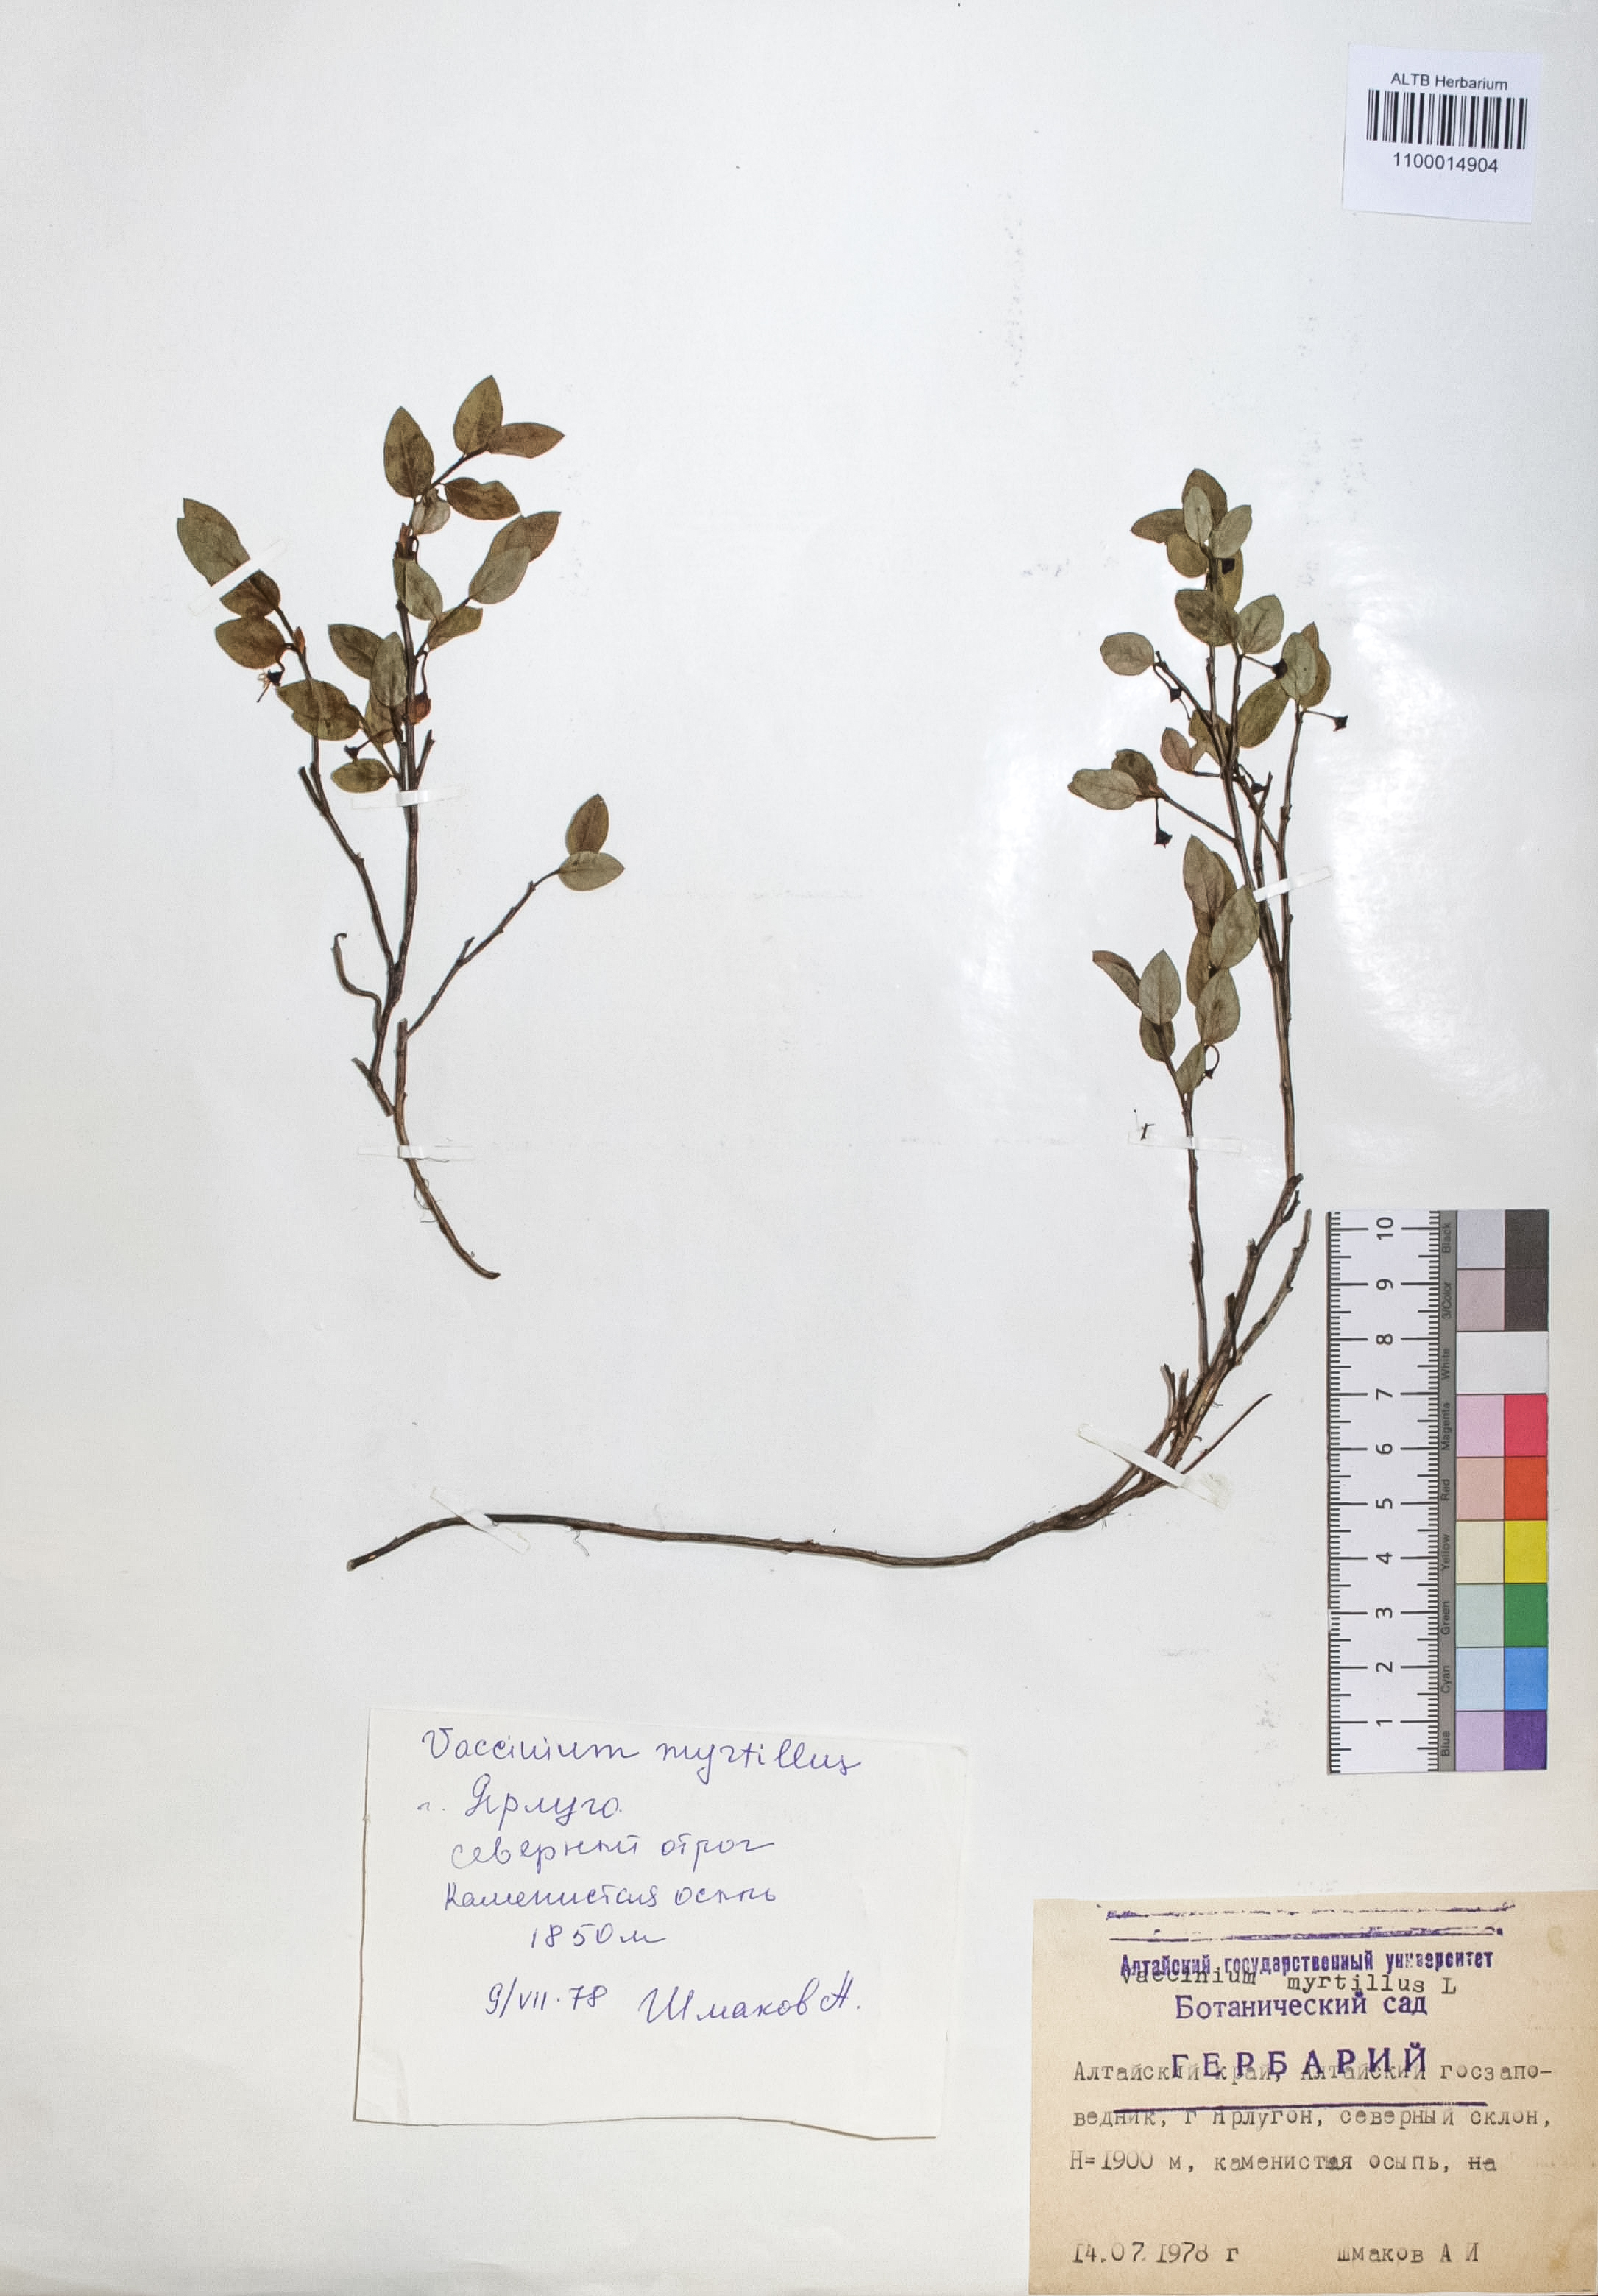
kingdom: Plantae
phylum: Tracheophyta
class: Magnoliopsida
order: Ericales
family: Ericaceae
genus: Vaccinium
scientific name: Vaccinium myrtillus
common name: Bilberry
